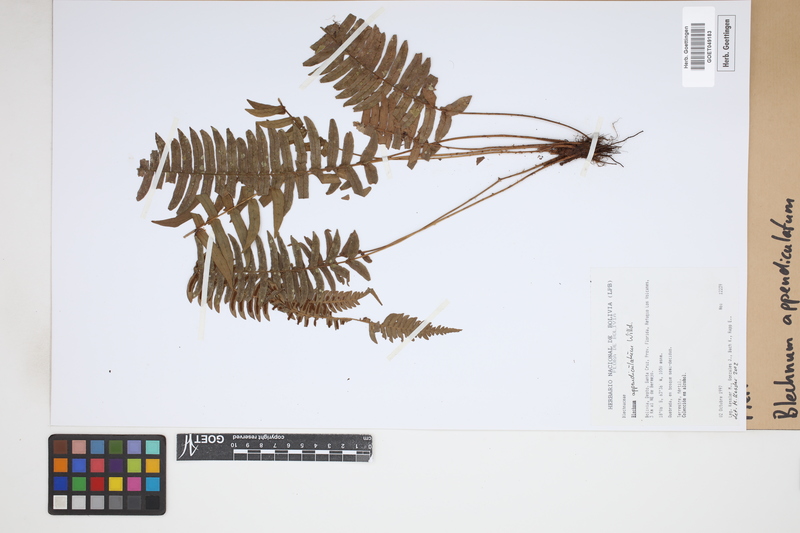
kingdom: Plantae
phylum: Tracheophyta
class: Polypodiopsida
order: Polypodiales
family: Blechnaceae
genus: Blechnum
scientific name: Blechnum appendiculatum
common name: Palm fern
